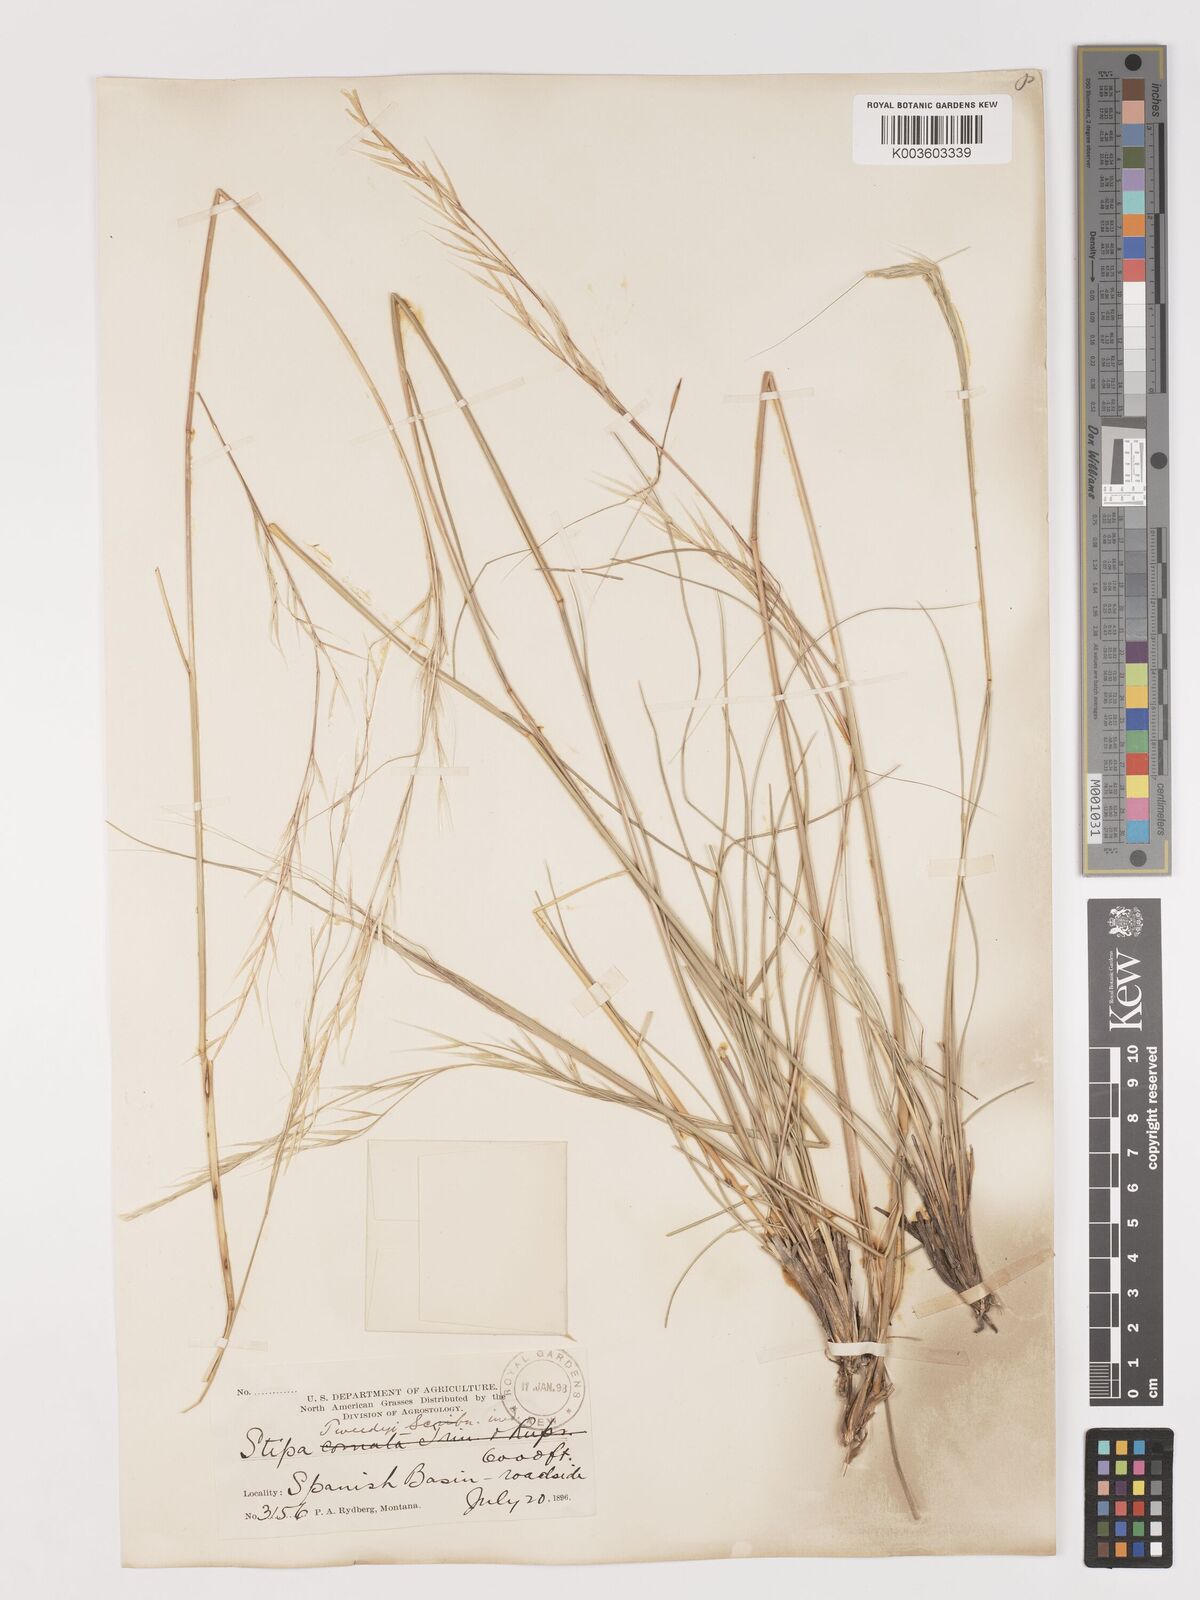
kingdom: Plantae
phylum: Tracheophyta
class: Liliopsida
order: Poales
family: Poaceae
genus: Hesperostipa
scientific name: Hesperostipa comata
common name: Needle-and-thread grass
